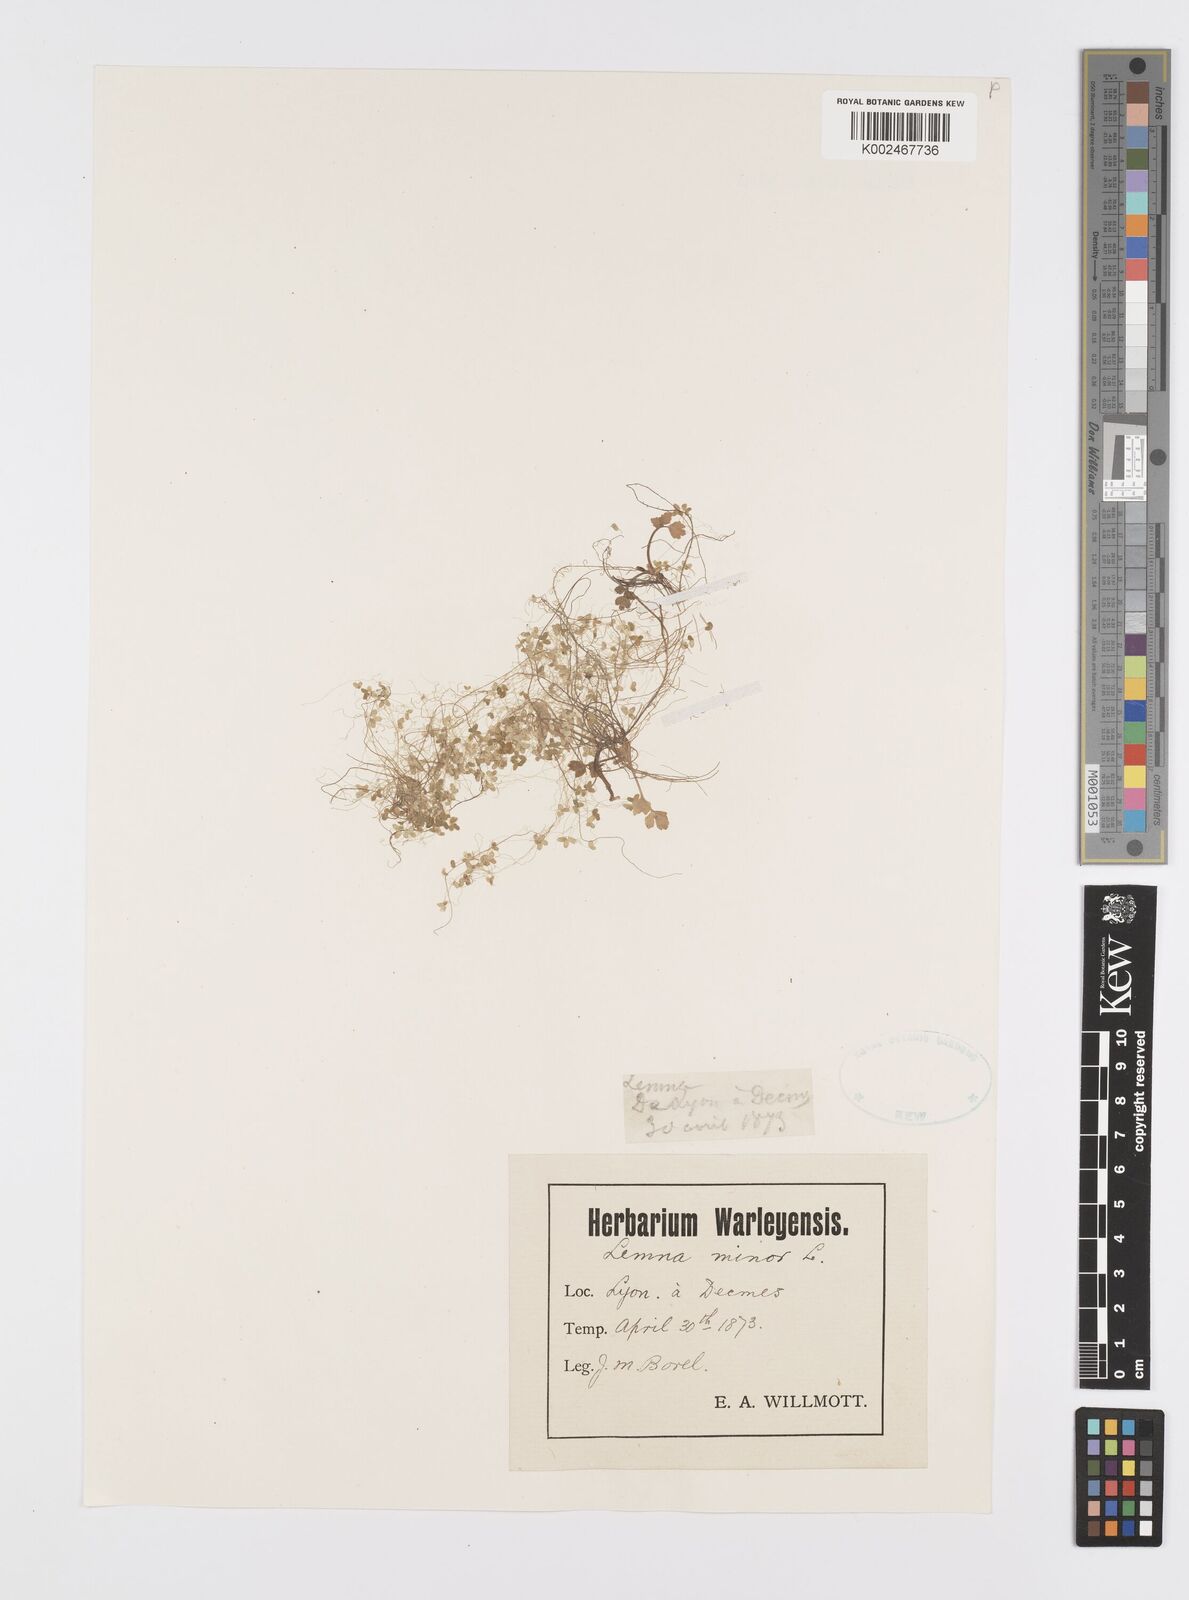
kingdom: Plantae
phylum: Tracheophyta
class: Liliopsida
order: Alismatales
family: Araceae
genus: Lemna
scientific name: Lemna minor
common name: Common duckweed
